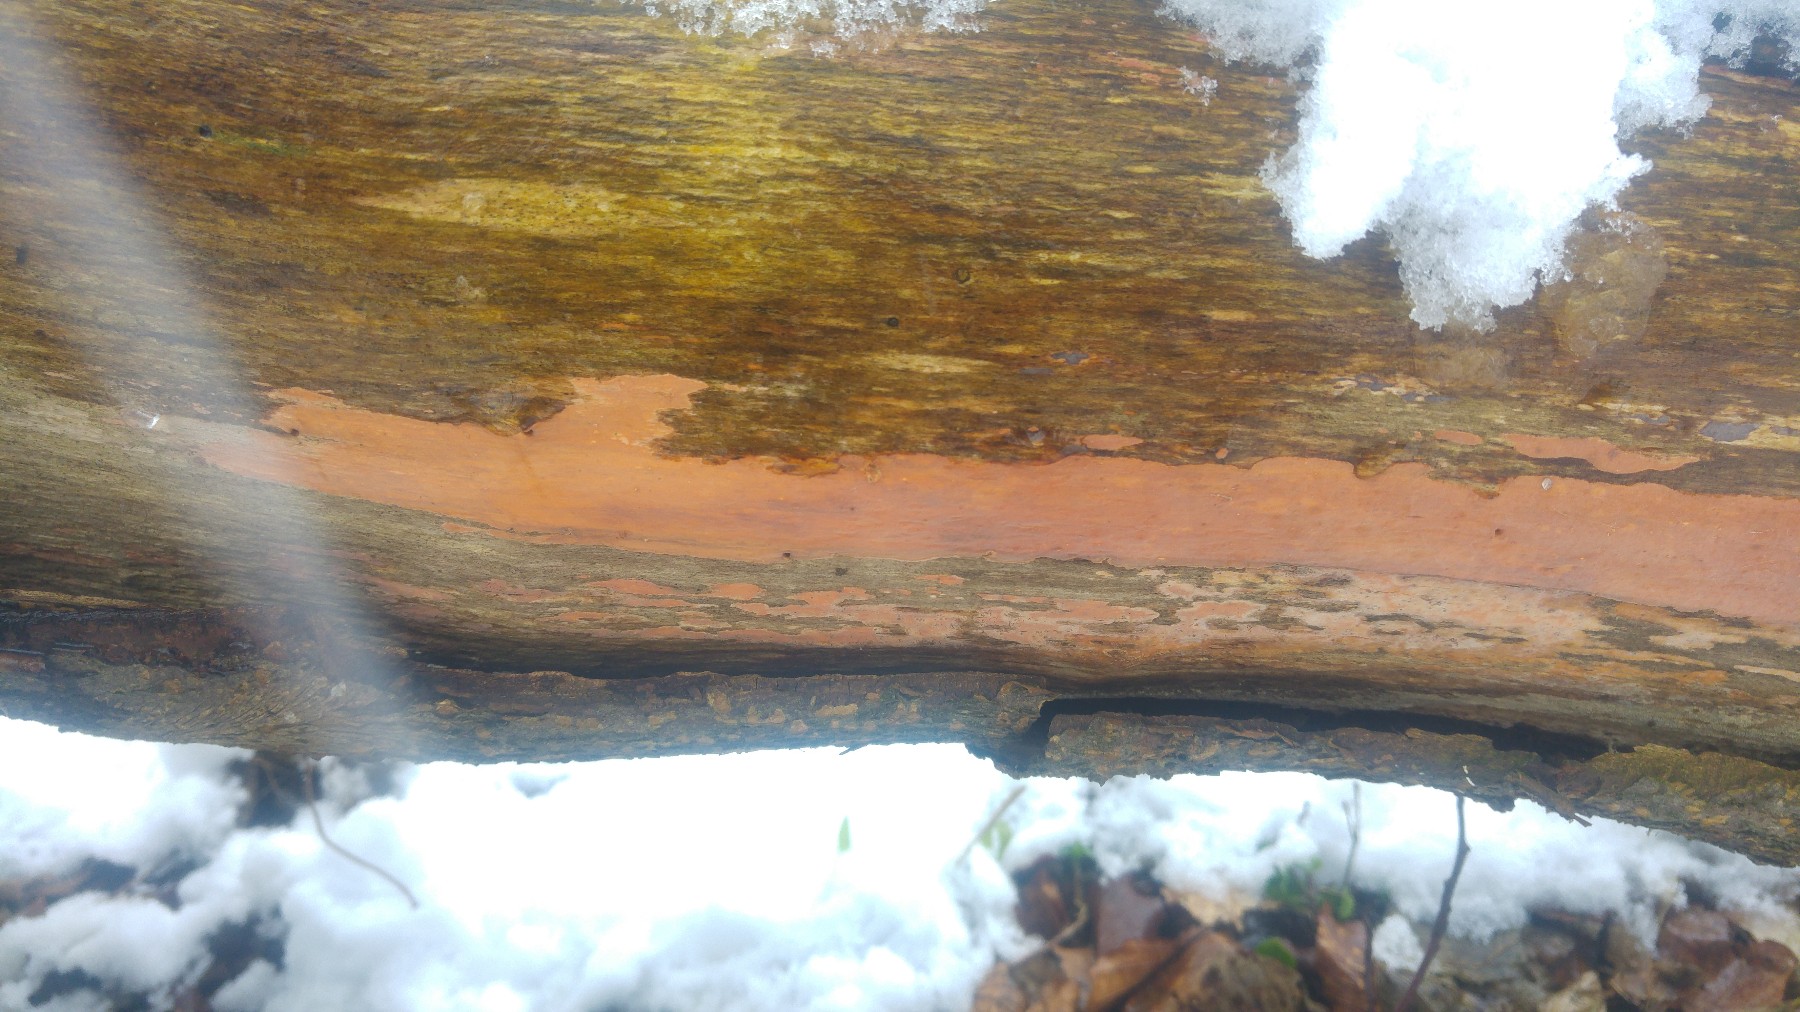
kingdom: Fungi
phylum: Basidiomycota
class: Agaricomycetes
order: Russulales
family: Peniophoraceae
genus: Peniophora
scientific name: Peniophora incarnata
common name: laksefarvet voksskind
